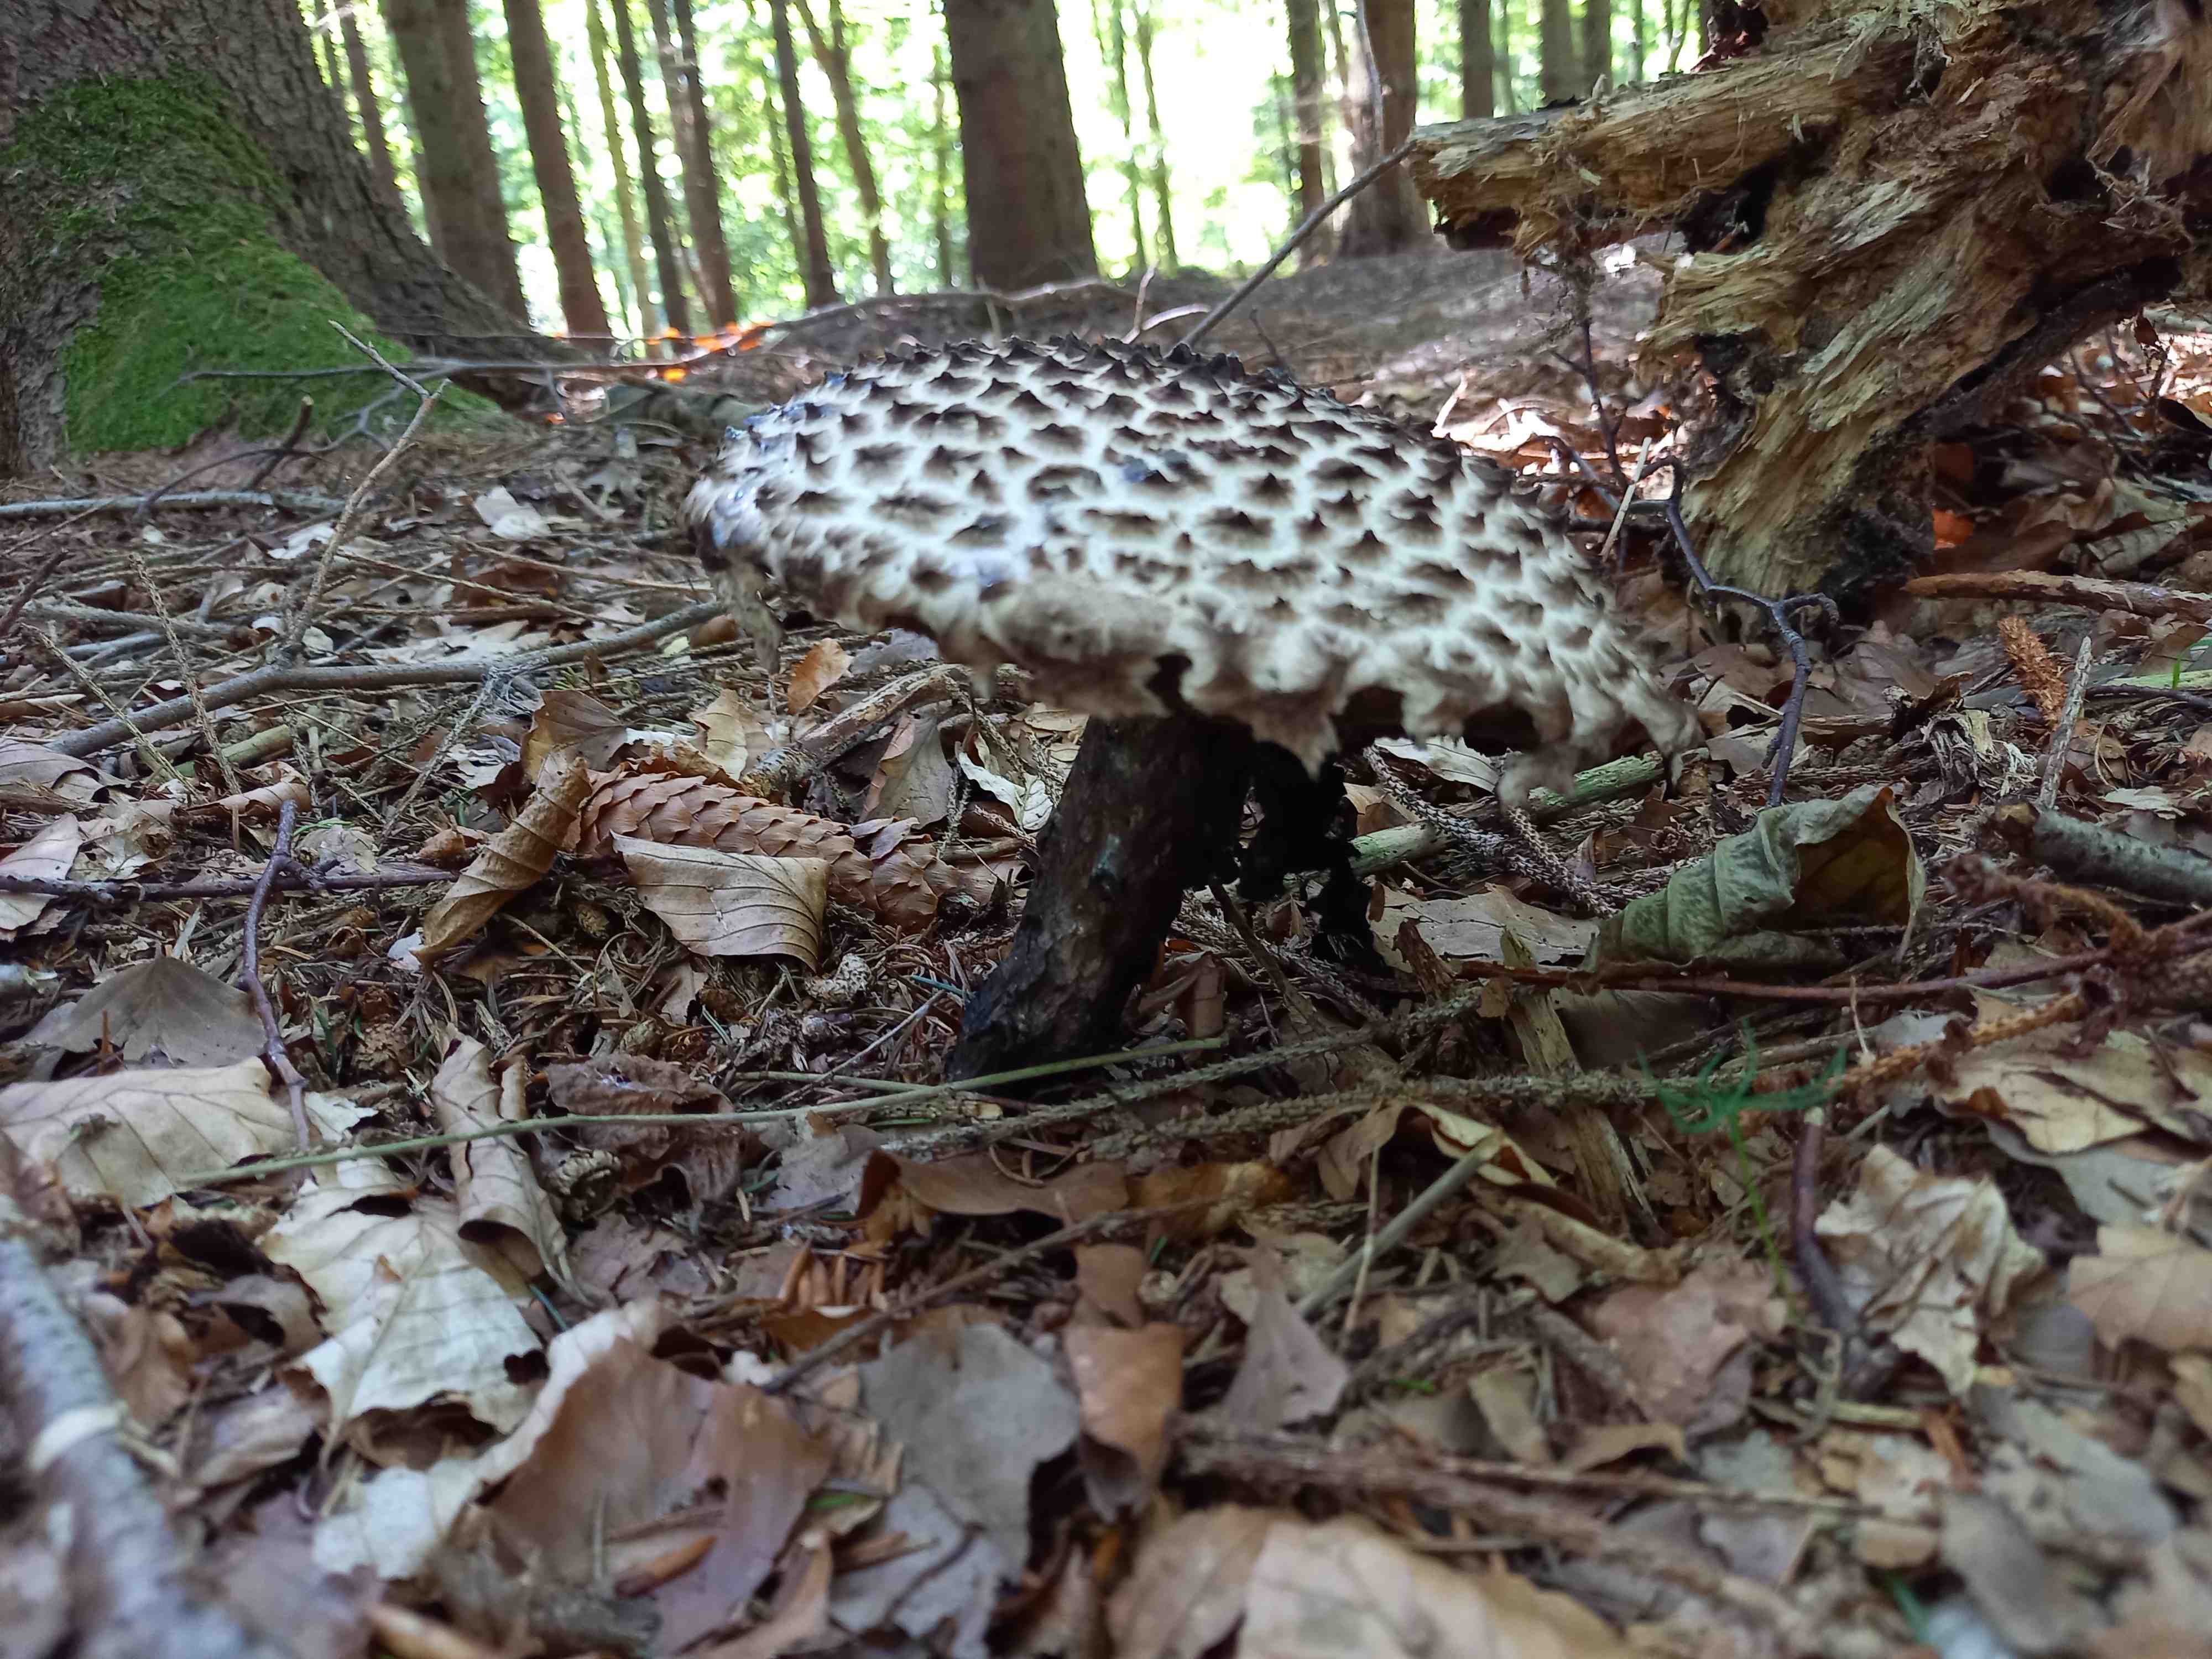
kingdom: Fungi
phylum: Basidiomycota
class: Agaricomycetes
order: Boletales
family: Boletaceae
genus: Strobilomyces
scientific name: Strobilomyces strobilaceus
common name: koglerørhat
